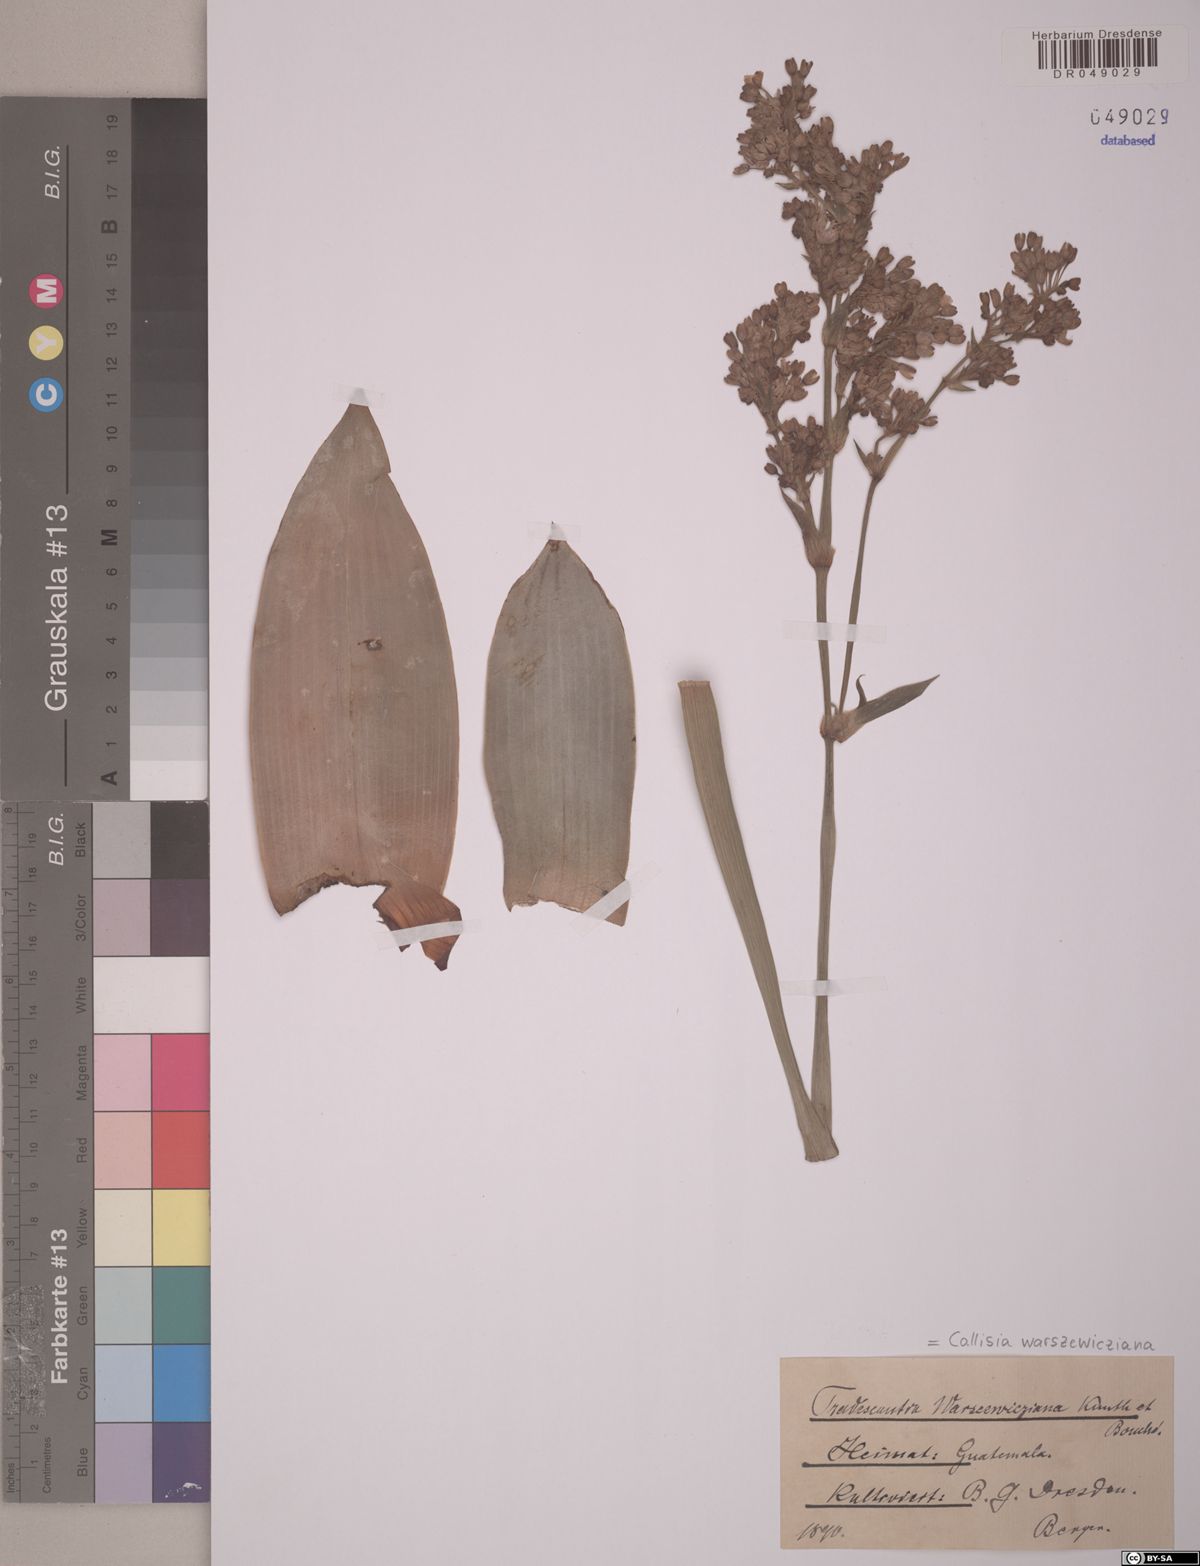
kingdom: Plantae
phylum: Tracheophyta
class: Liliopsida
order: Commelinales
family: Commelinaceae
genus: Callisia
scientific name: Callisia warszewicziana
